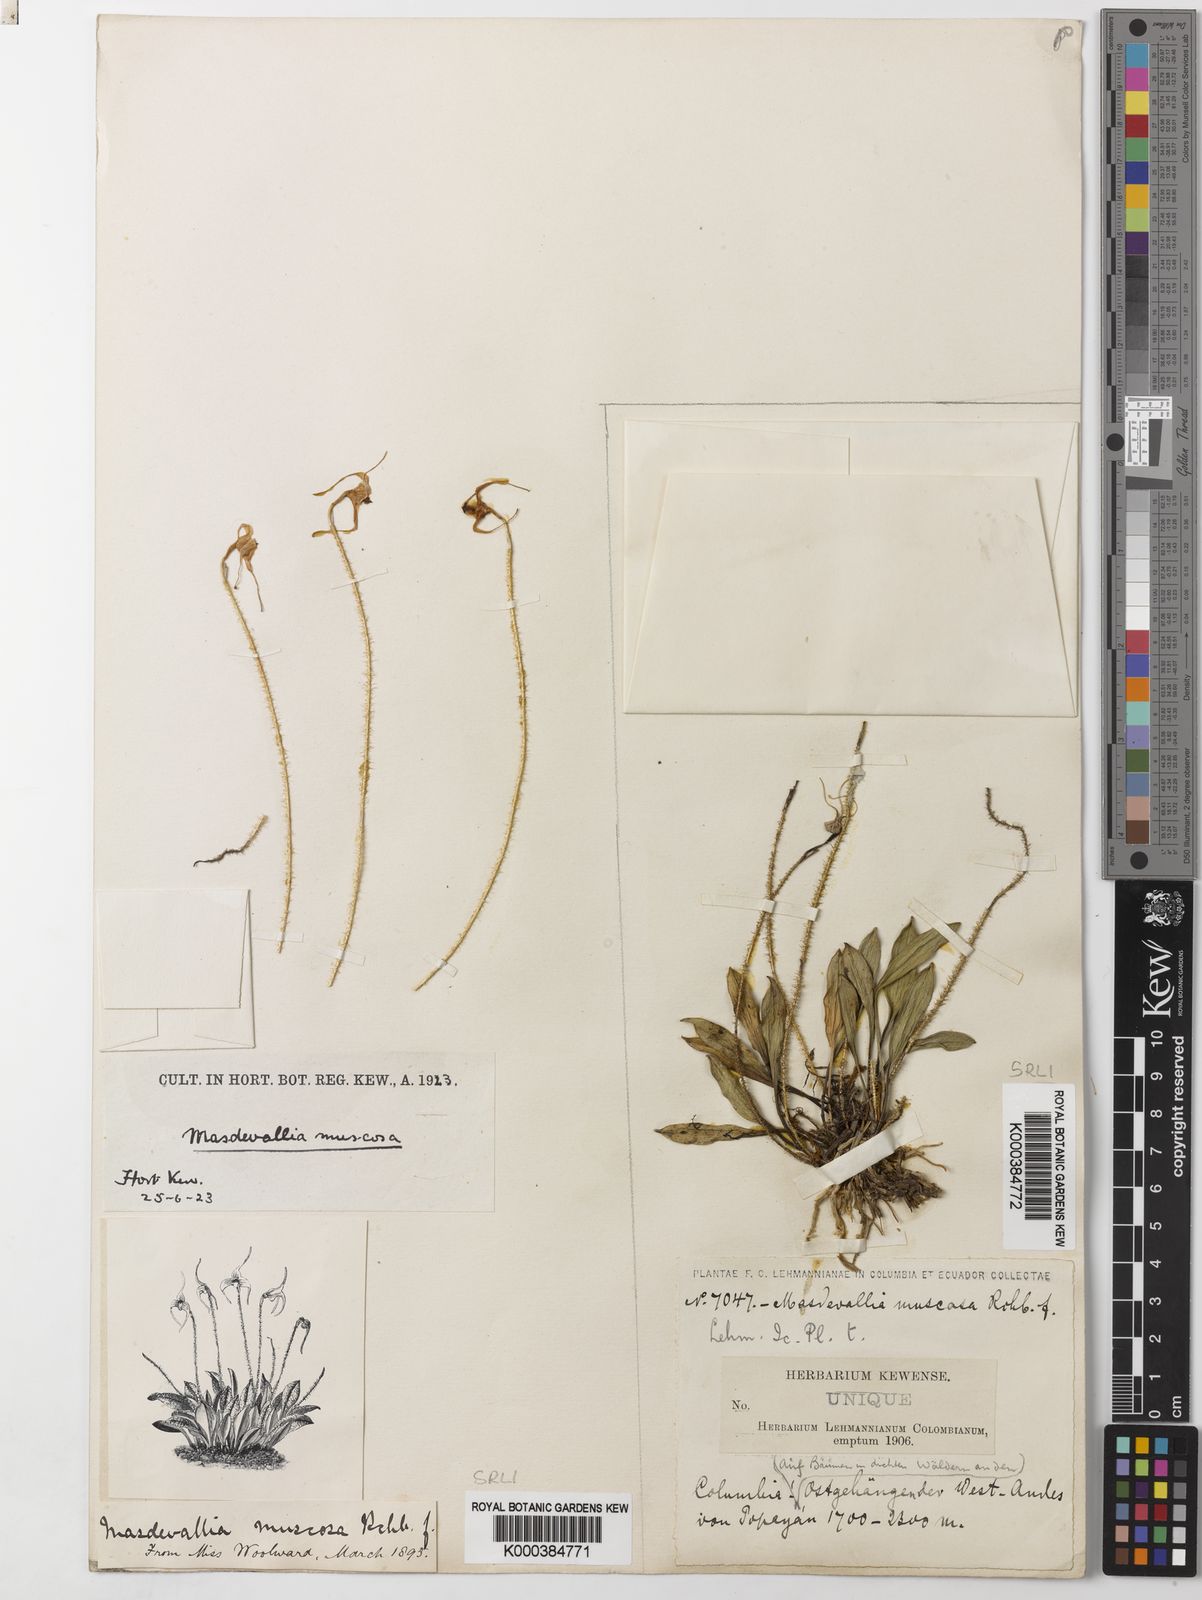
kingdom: Plantae
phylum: Tracheophyta
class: Liliopsida
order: Asparagales
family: Orchidaceae
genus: Porroglossum
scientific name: Porroglossum muscosum
